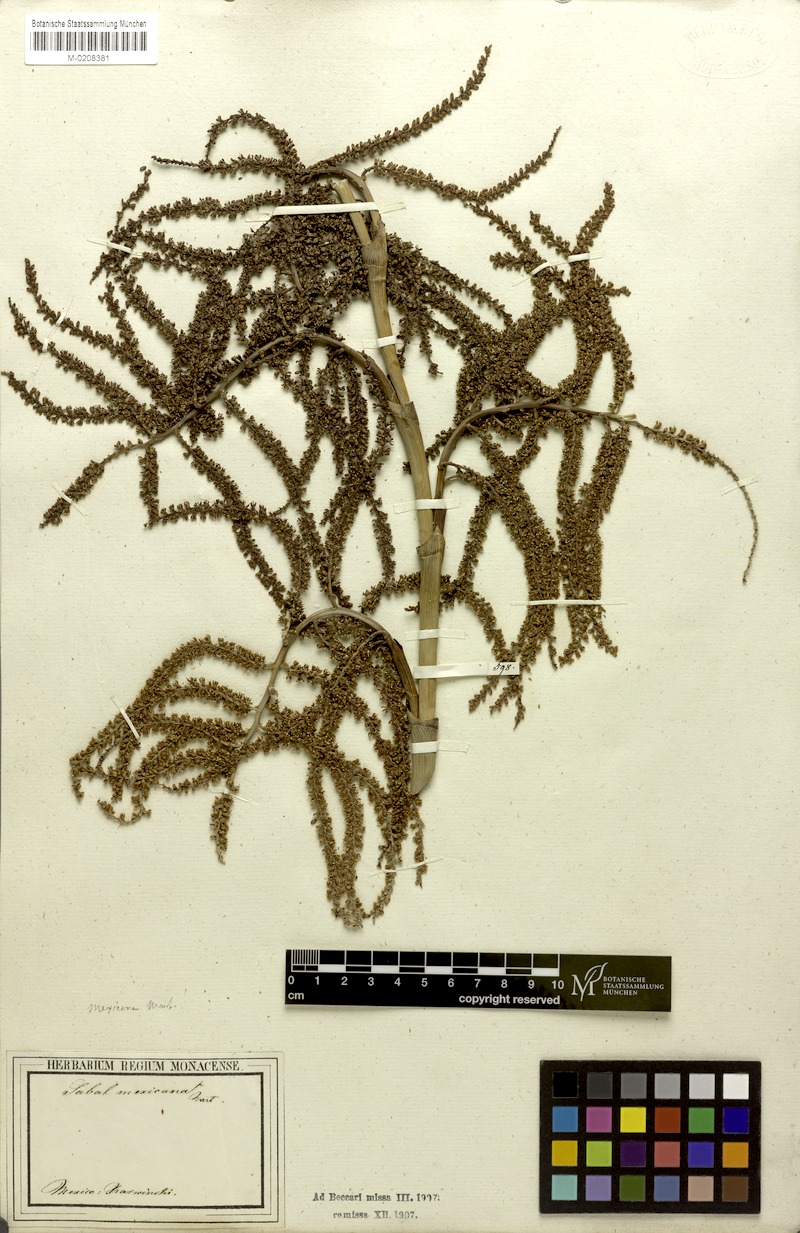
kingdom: Plantae
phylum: Tracheophyta
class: Liliopsida
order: Arecales
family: Arecaceae
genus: Sabal
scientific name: Sabal mexicana
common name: Texas palmetto
